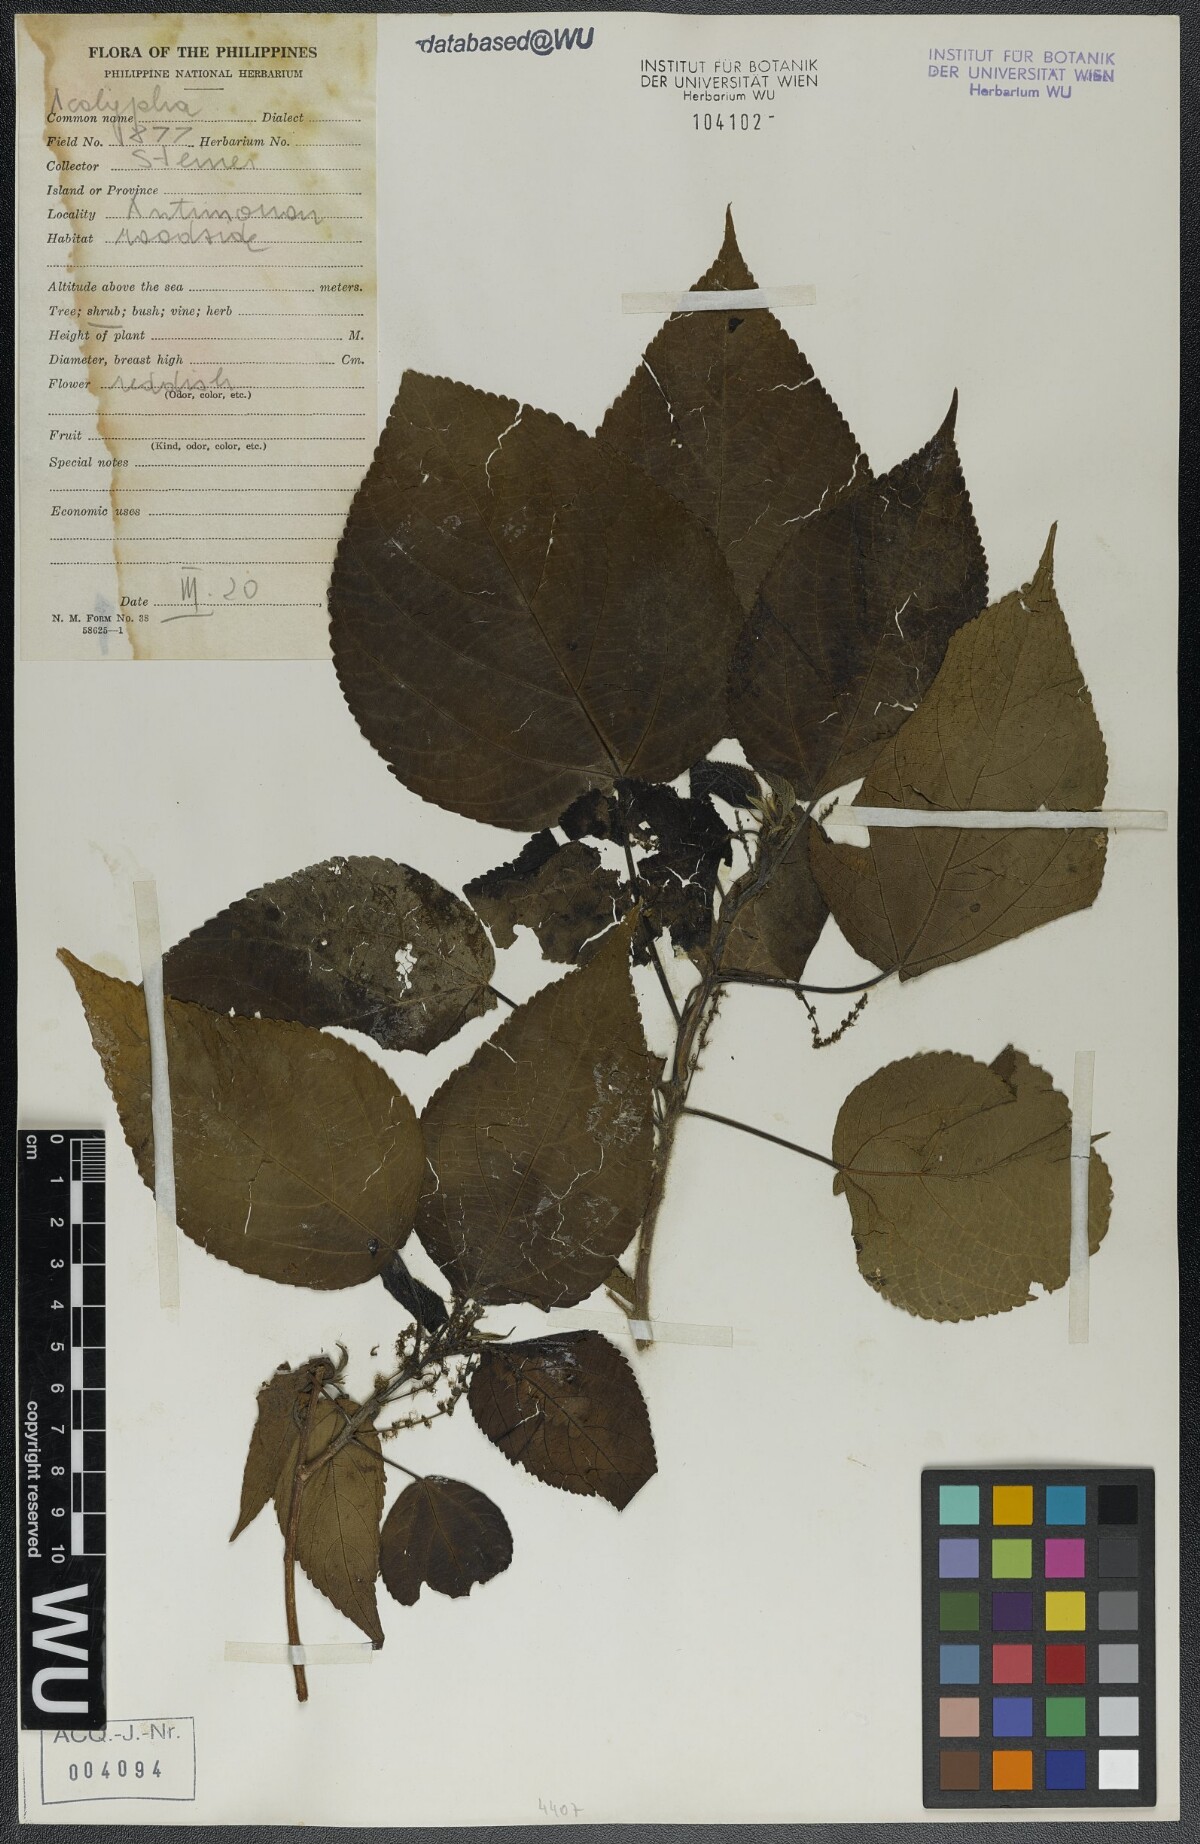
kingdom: Plantae
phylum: Tracheophyta
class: Magnoliopsida
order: Malpighiales
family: Euphorbiaceae
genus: Acalypha
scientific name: Acalypha
